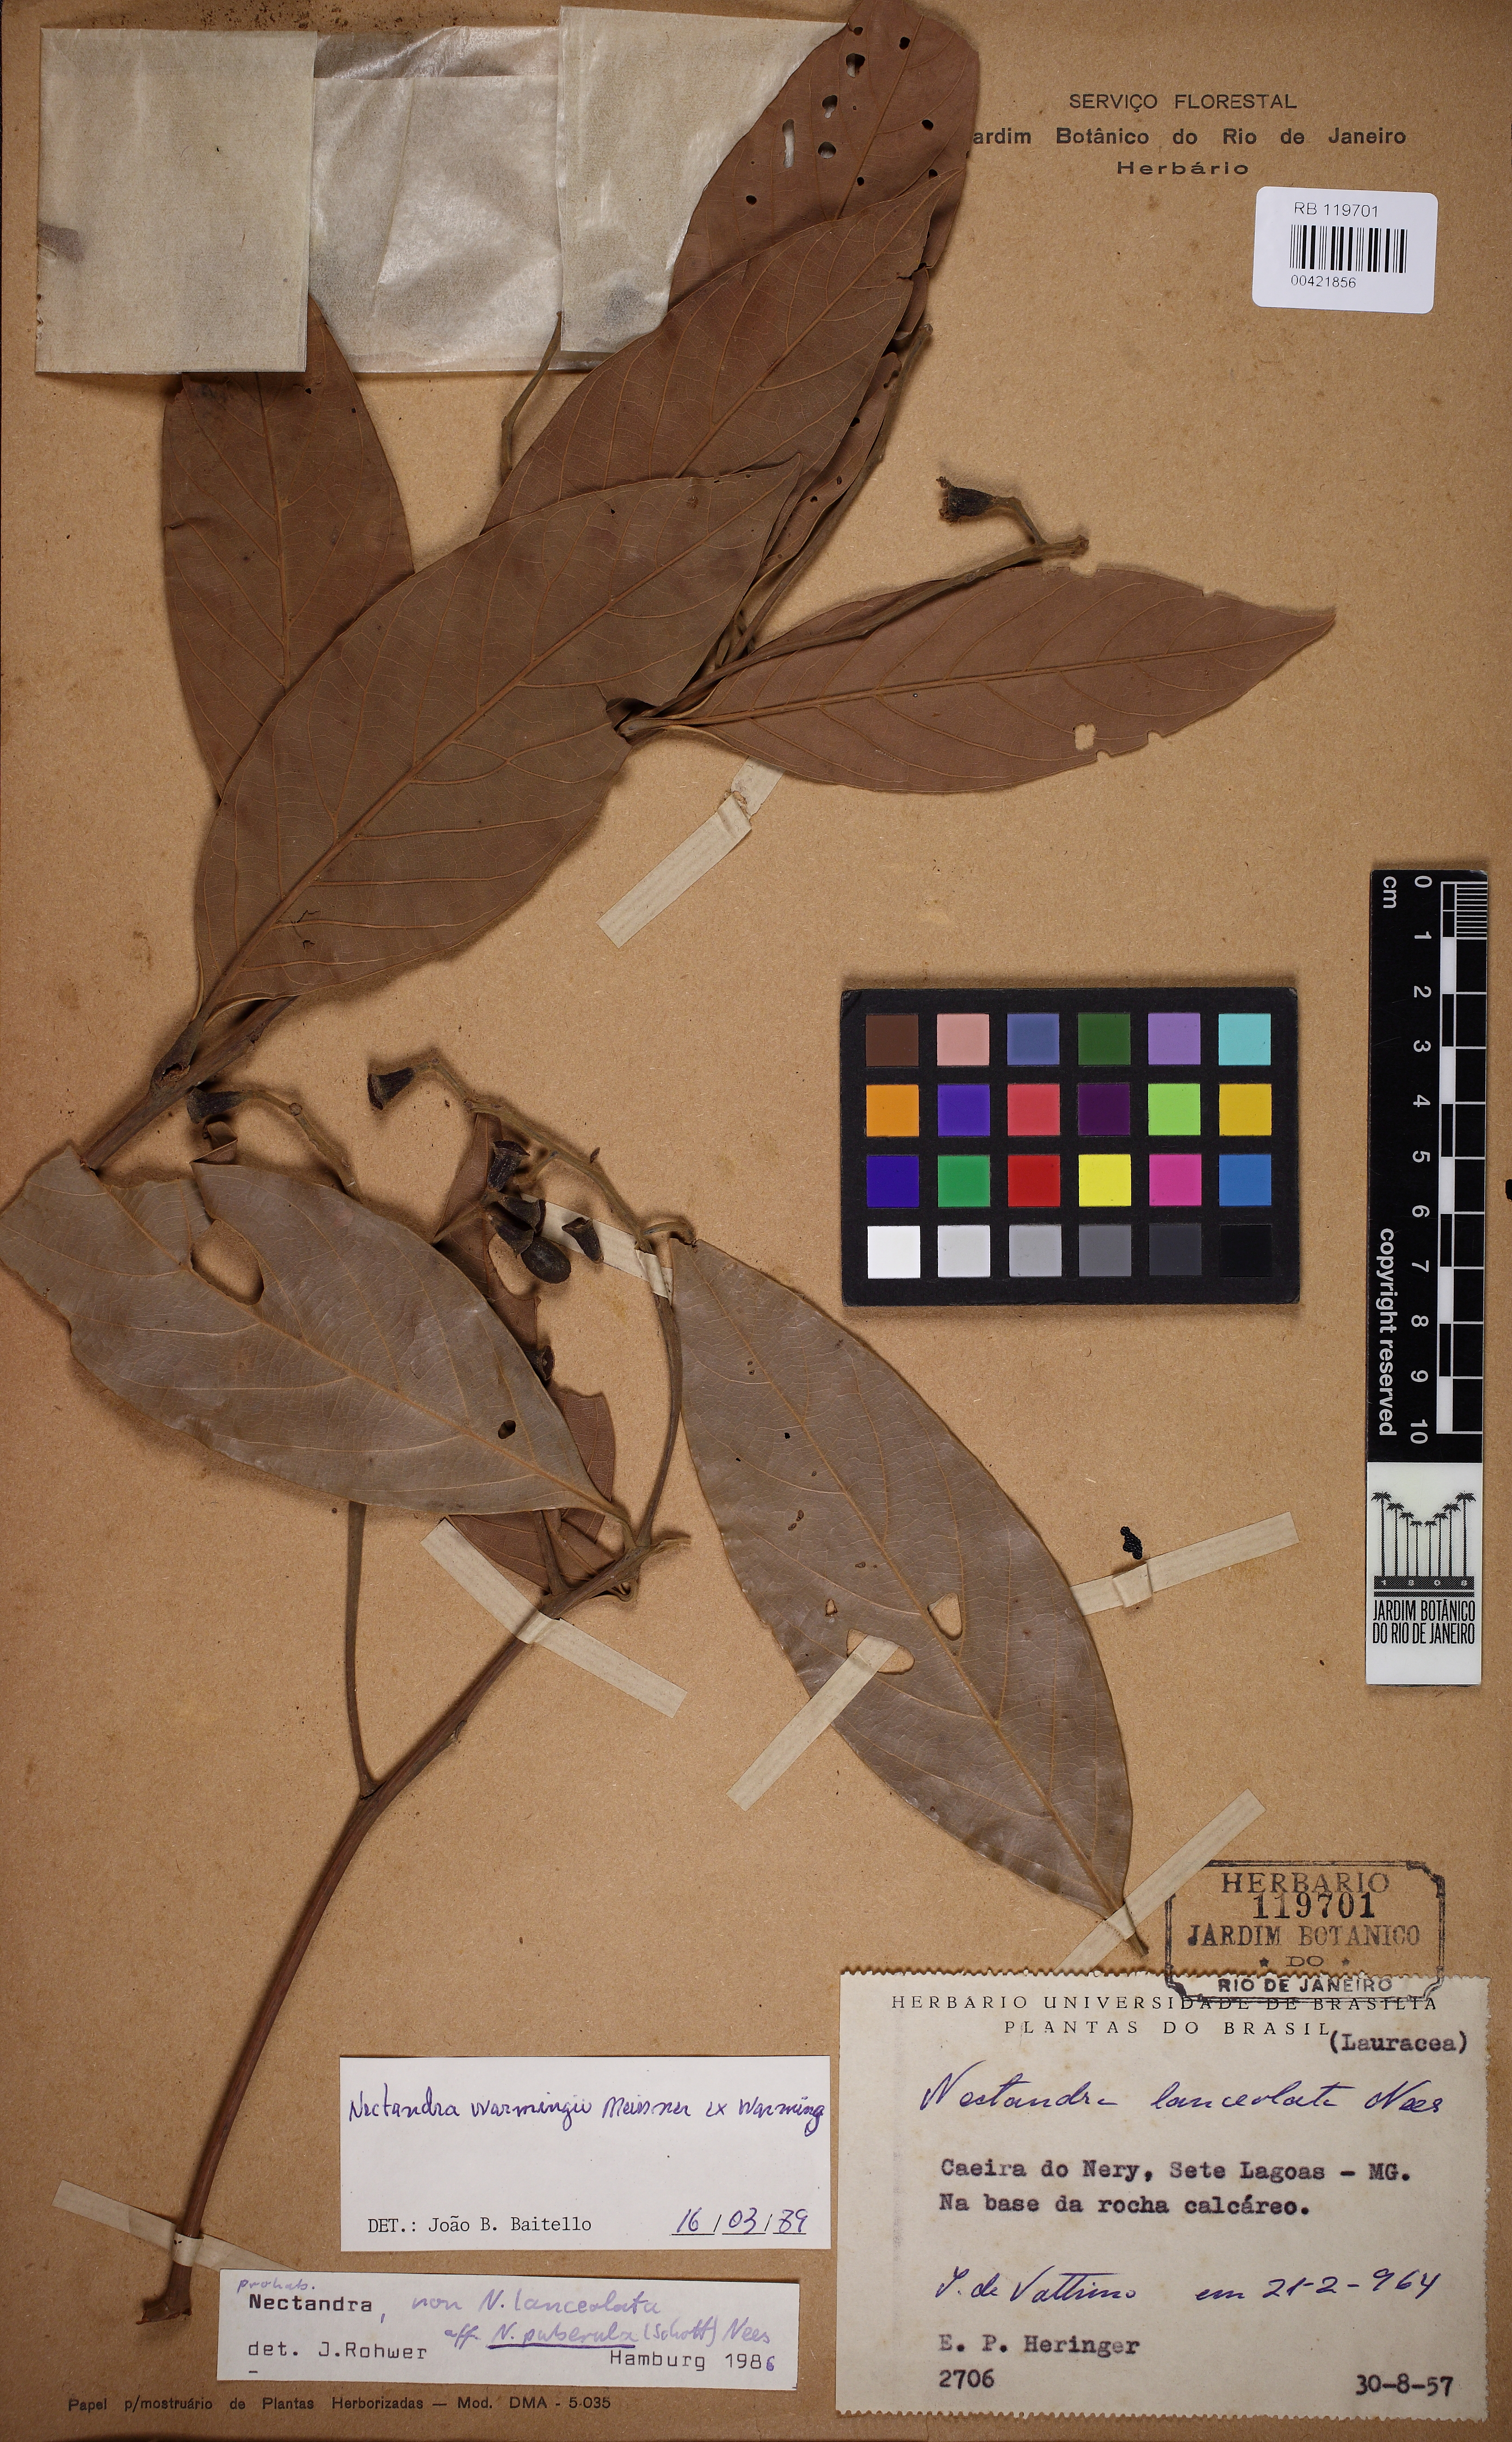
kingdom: Plantae
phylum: Tracheophyta
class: Magnoliopsida
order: Laurales
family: Lauraceae
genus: Nectandra
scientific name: Nectandra warmingii
